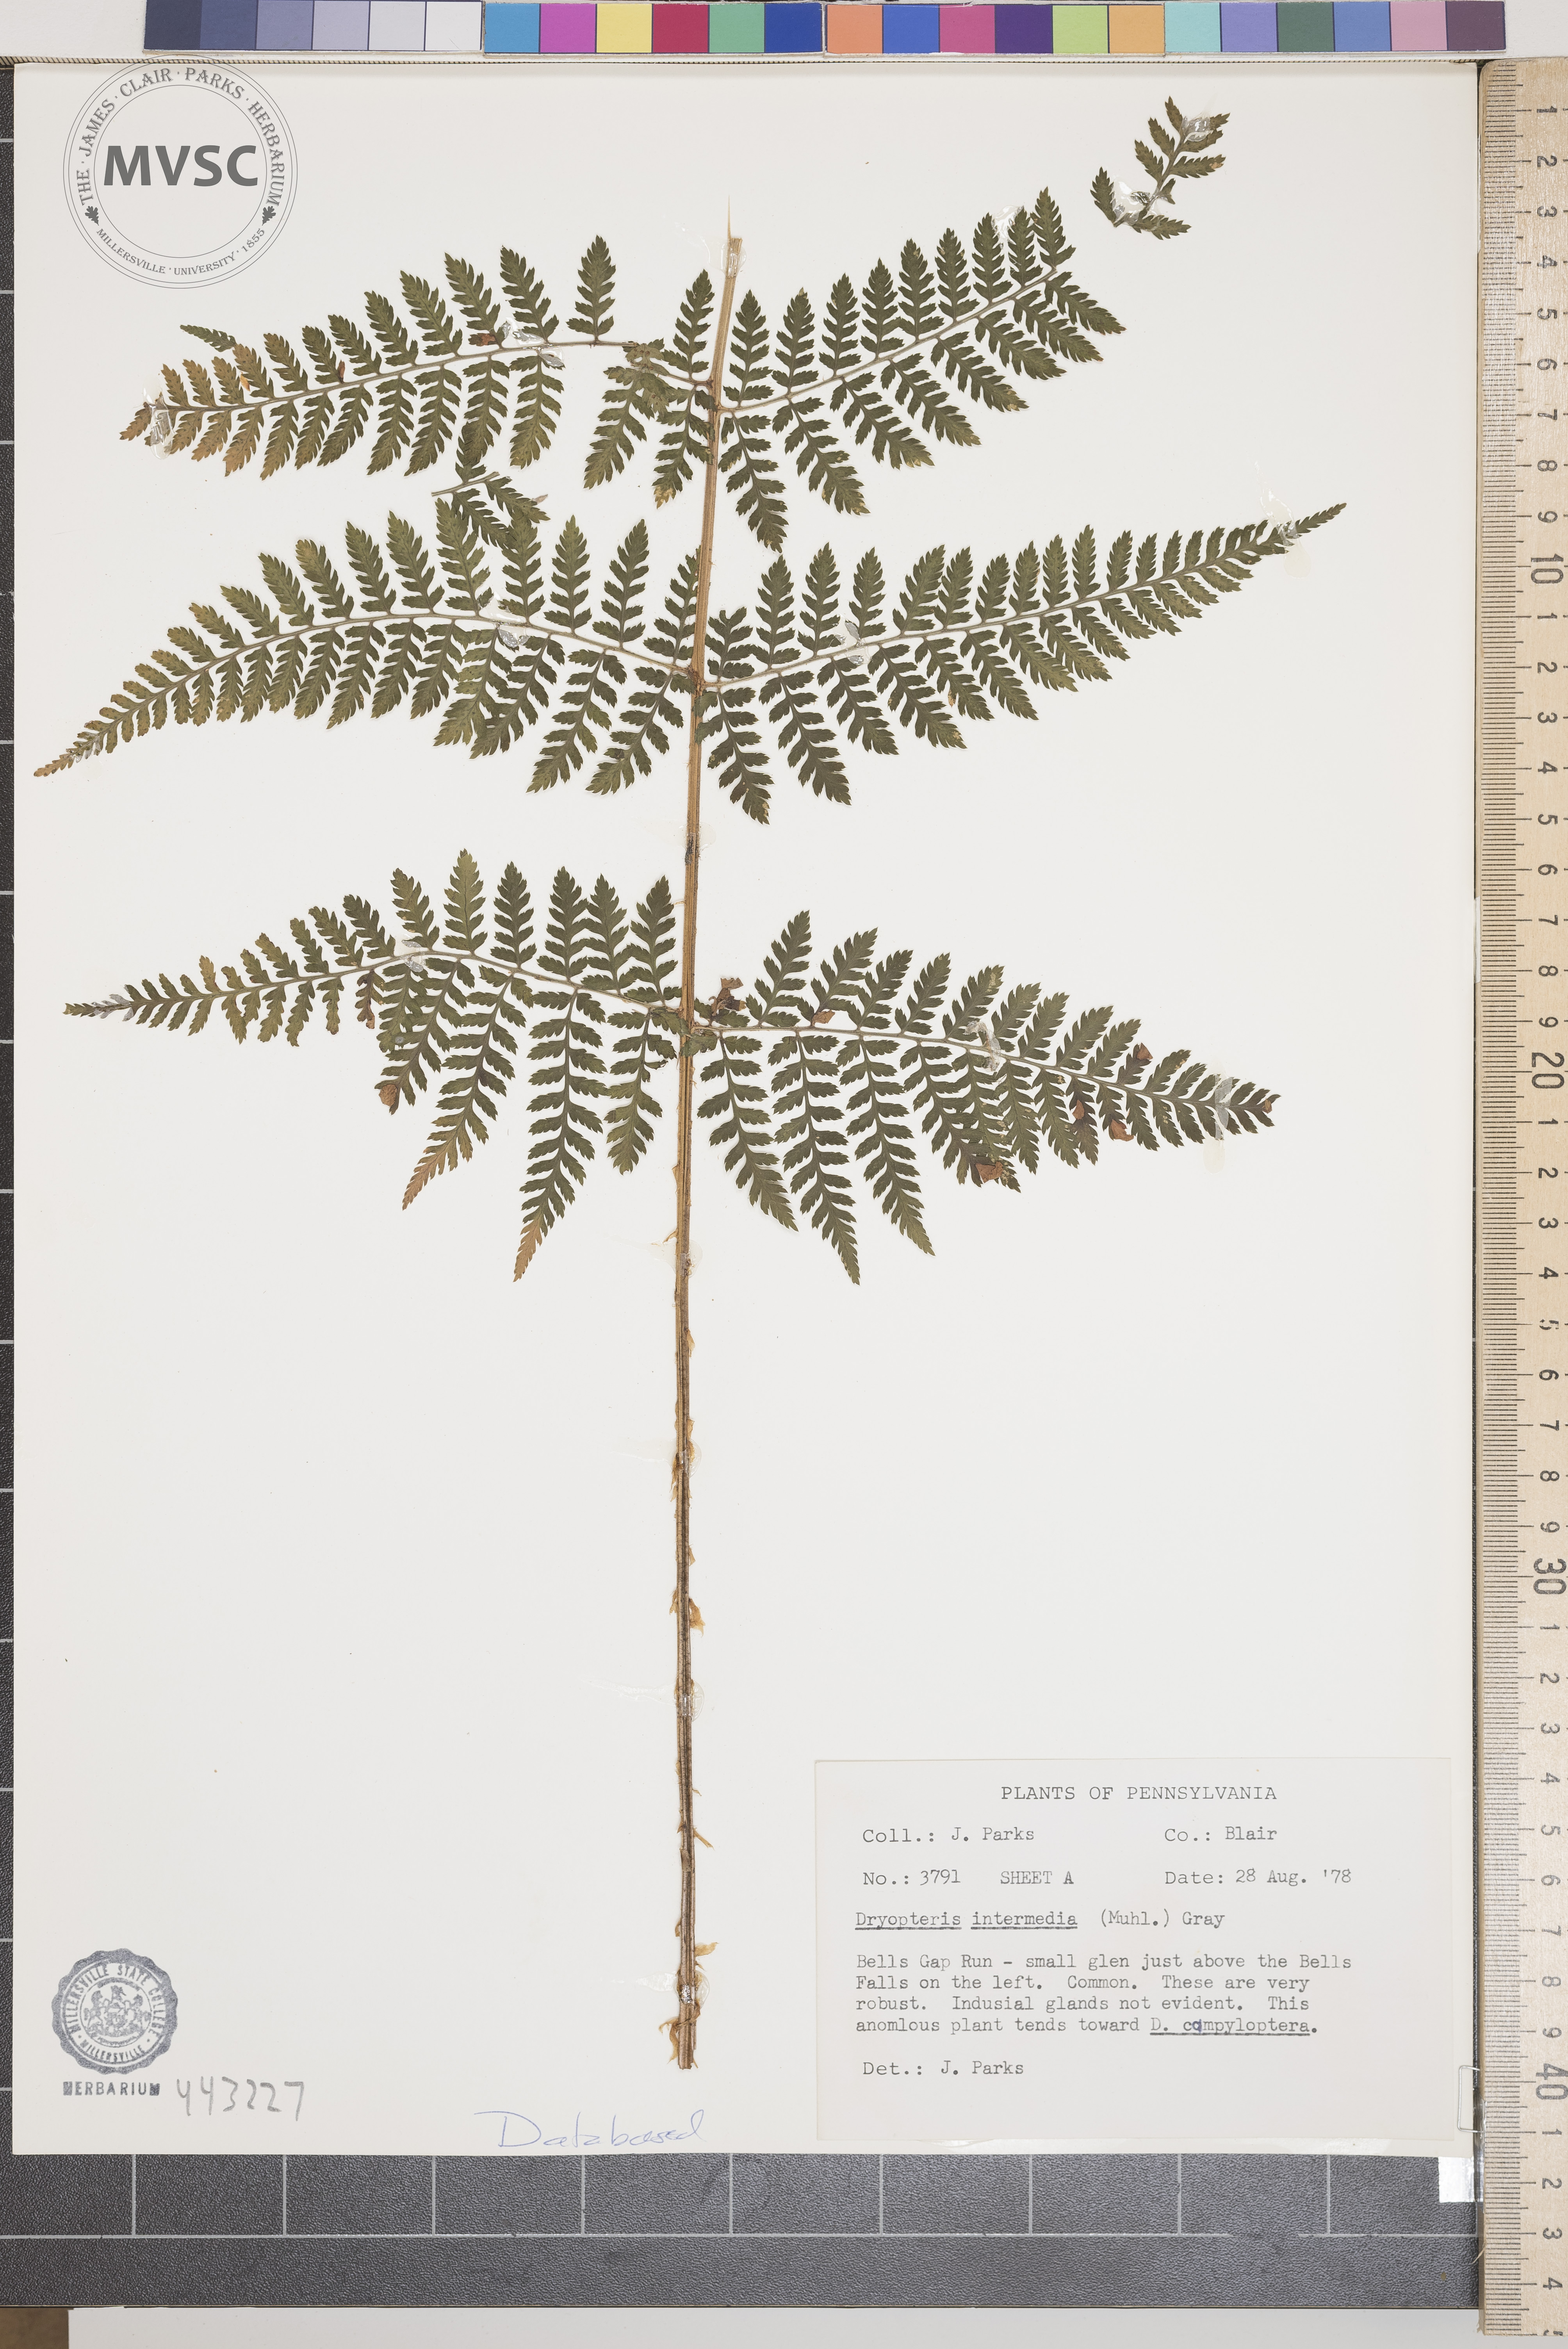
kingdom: Plantae
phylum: Tracheophyta
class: Polypodiopsida
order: Polypodiales
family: Dryopteridaceae
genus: Dryopteris
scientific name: Dryopteris intermedia
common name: Evergreen wood fern
